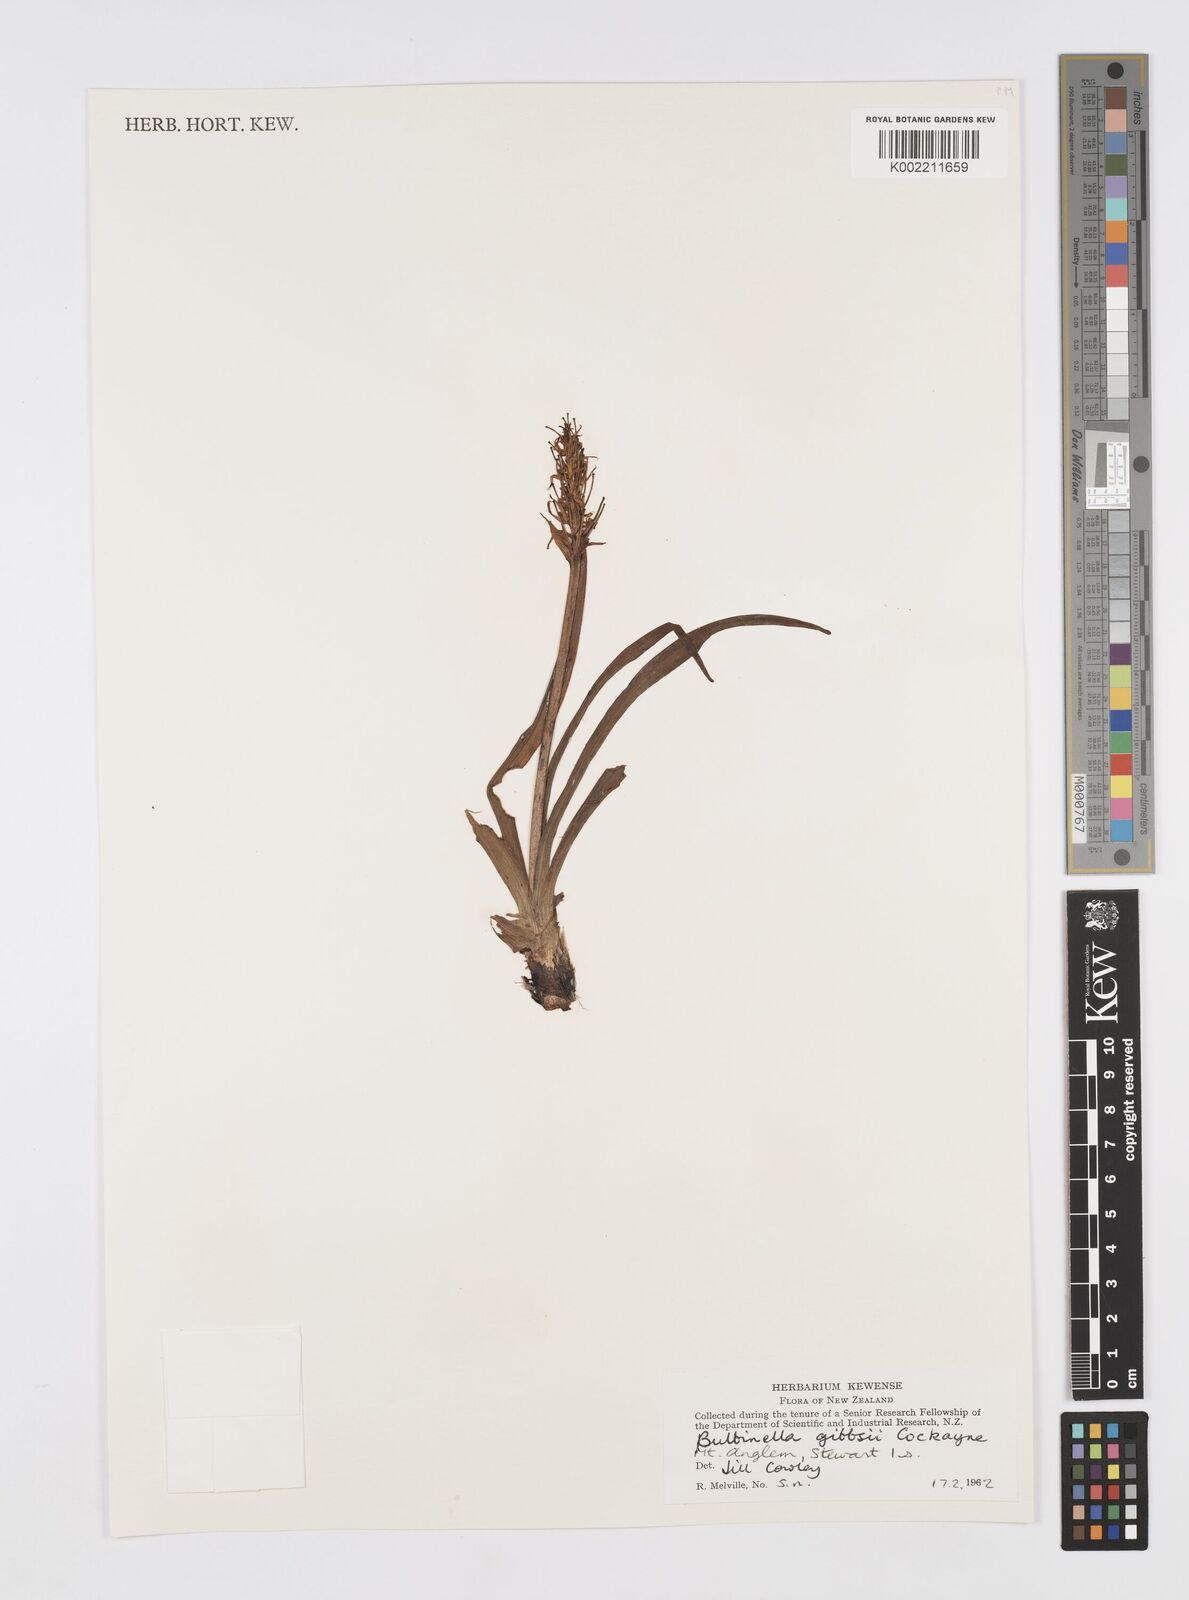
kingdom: Plantae
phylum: Tracheophyta
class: Liliopsida
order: Asparagales
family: Asphodelaceae
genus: Bulbinella
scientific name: Bulbinella gibbsii
